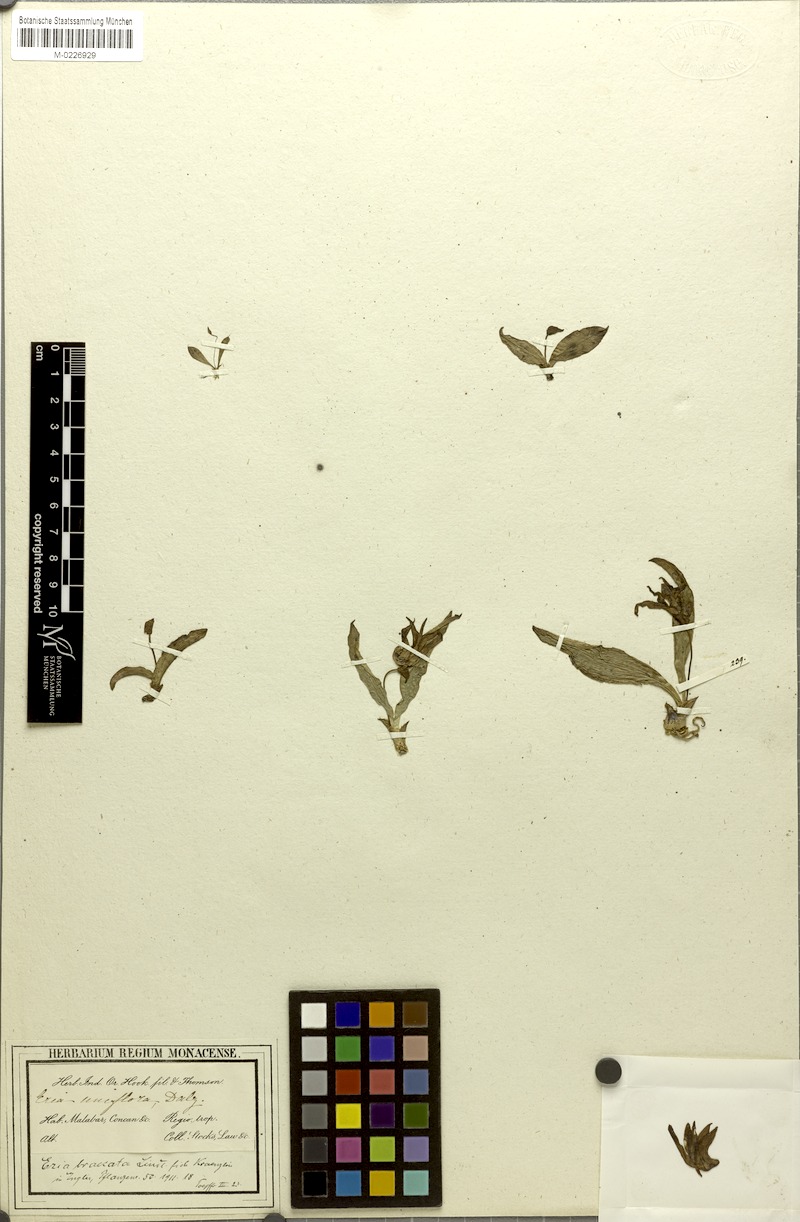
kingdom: Plantae
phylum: Tracheophyta
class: Liliopsida
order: Asparagales
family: Orchidaceae
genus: Porpax
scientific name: Porpax braccata
